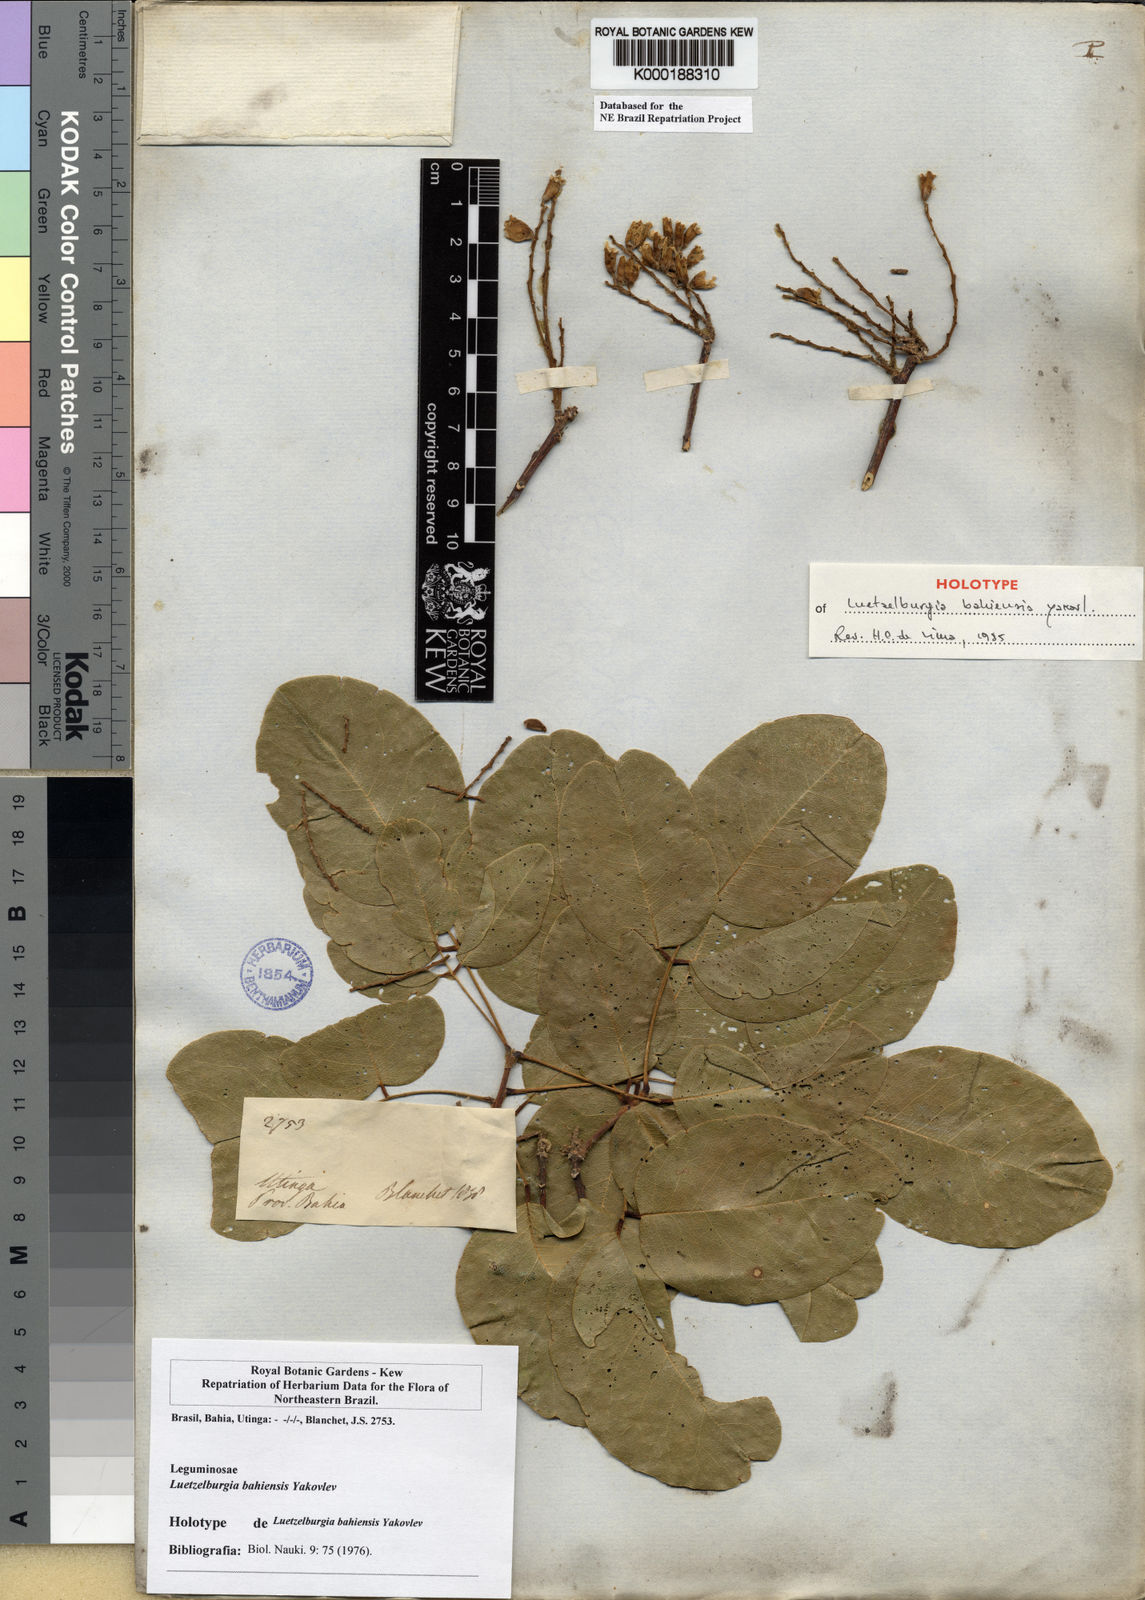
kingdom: Plantae
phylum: Tracheophyta
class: Magnoliopsida
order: Fabales
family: Fabaceae
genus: Luetzelburgia
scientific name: Luetzelburgia bahiensis
